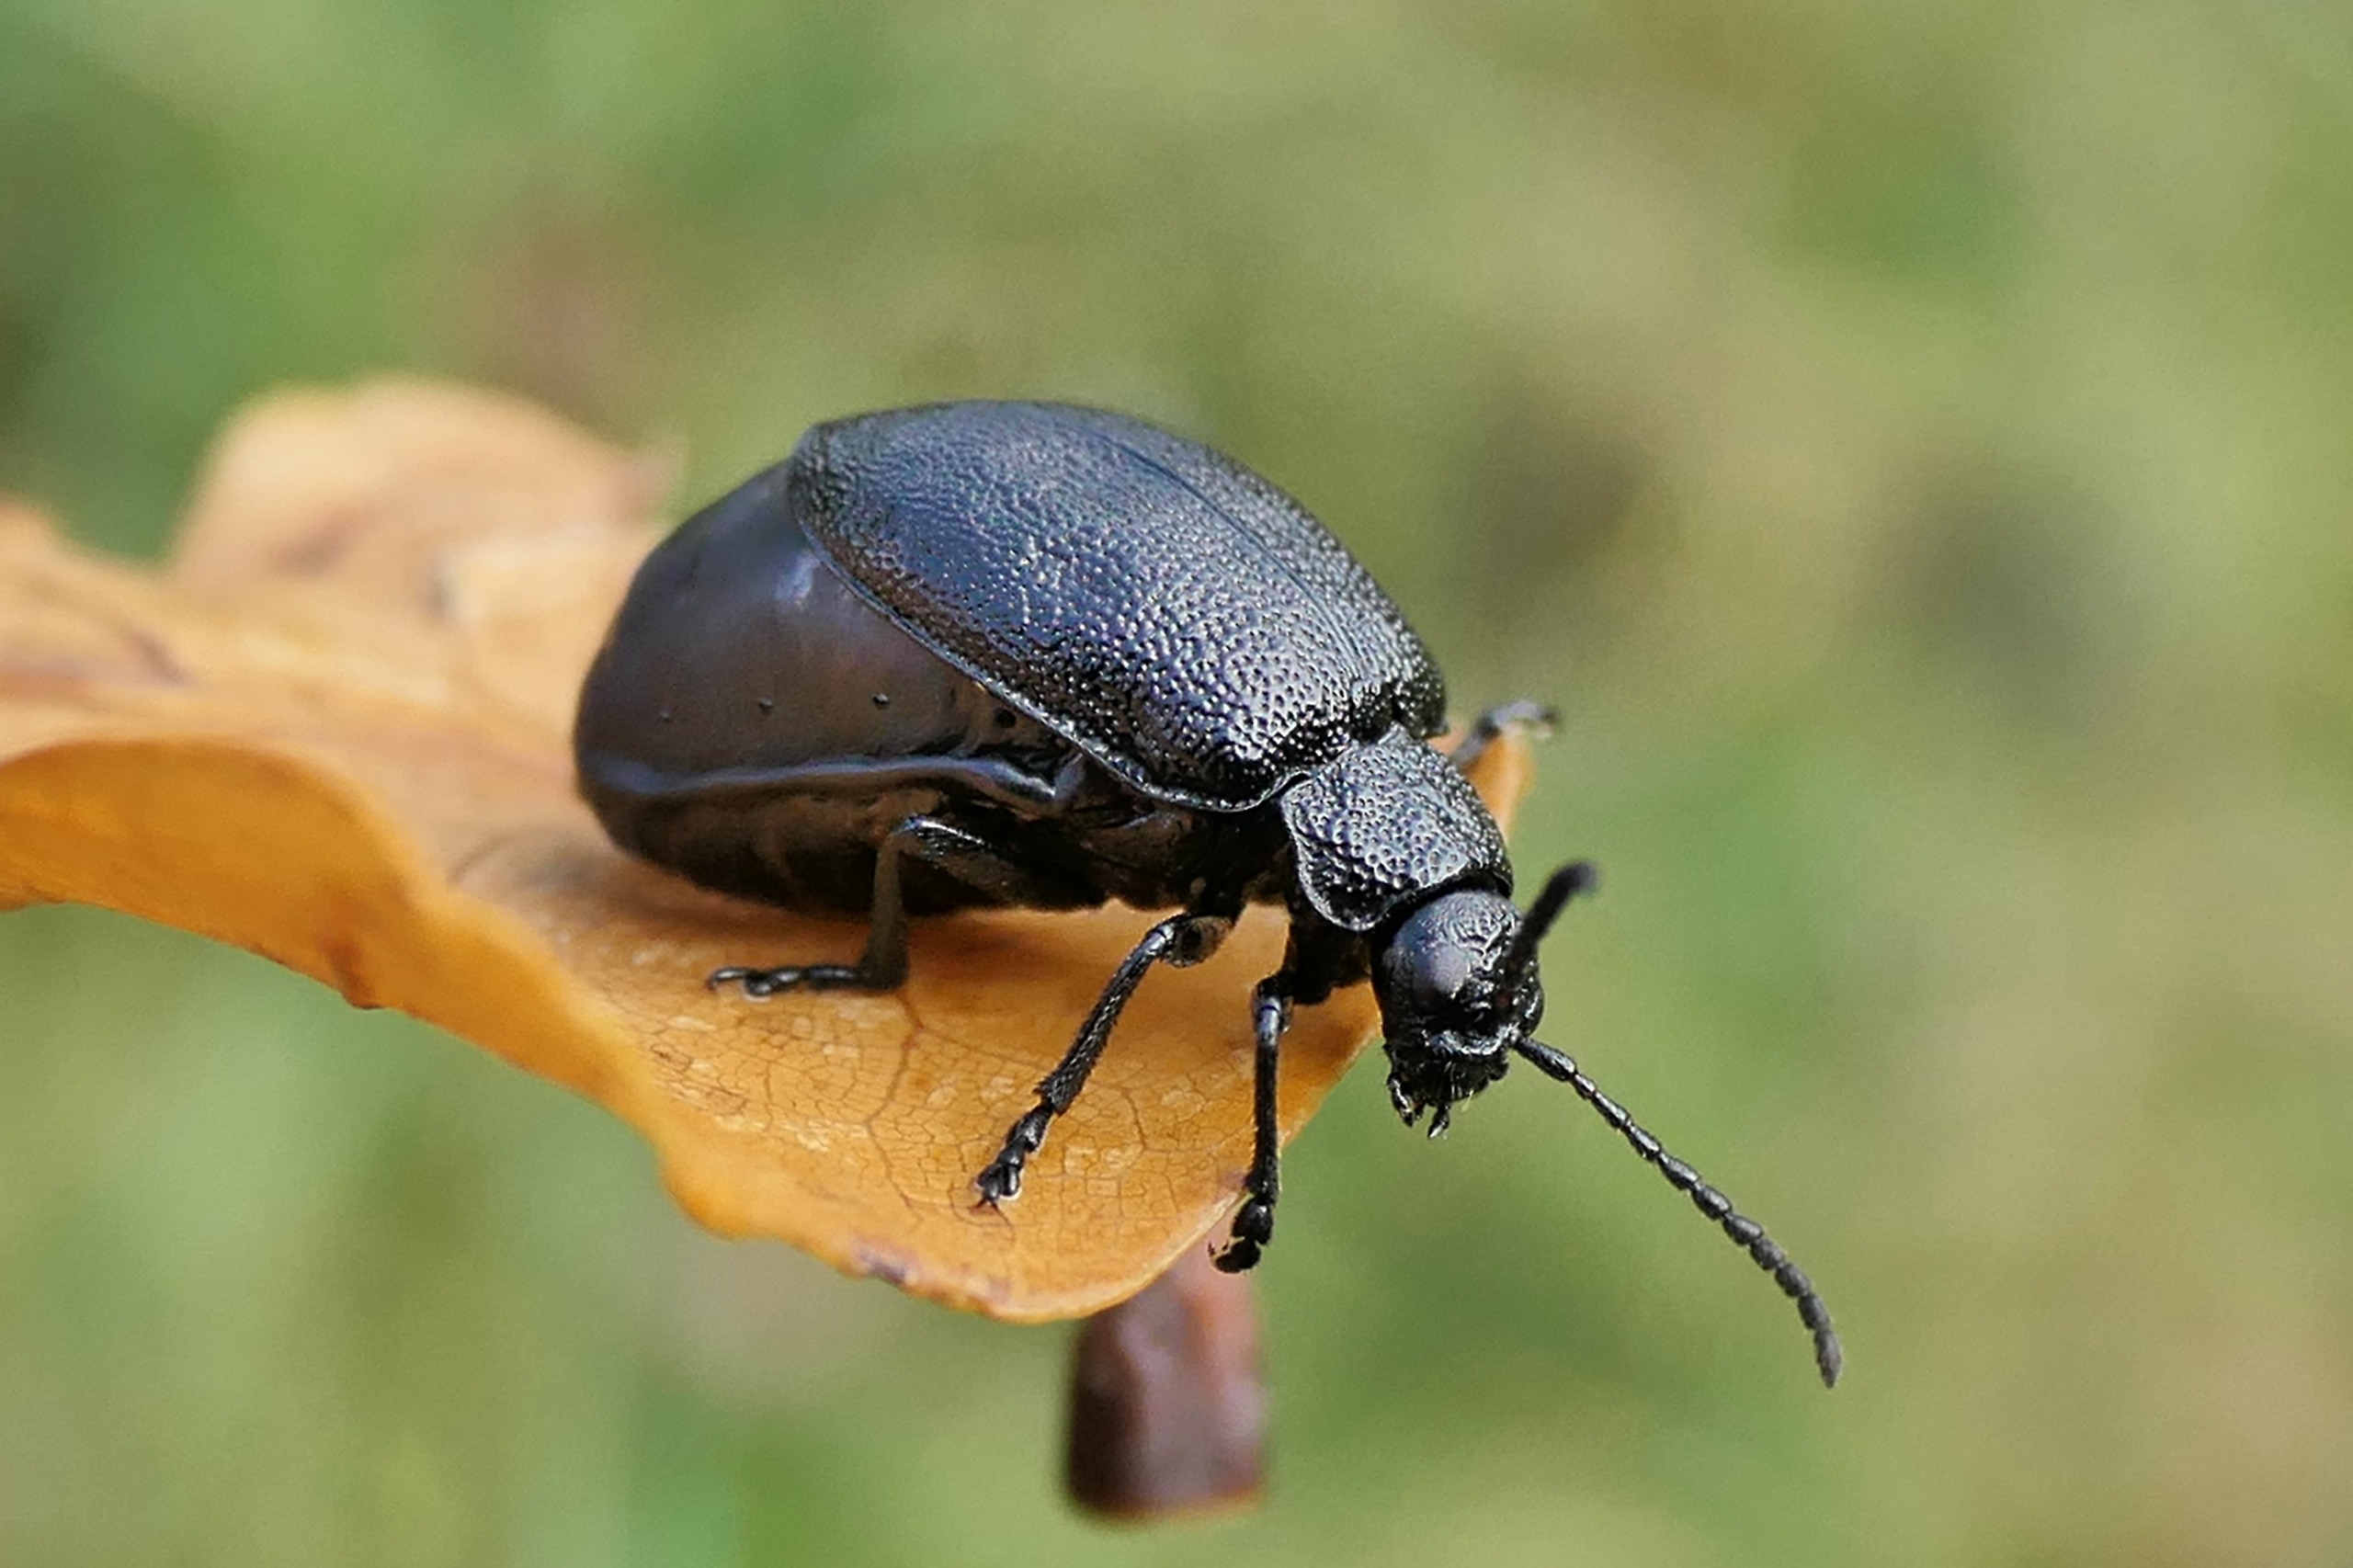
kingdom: Animalia
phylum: Arthropoda
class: Insecta
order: Coleoptera
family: Chrysomelidae
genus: Galeruca
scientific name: Galeruca tanaceti
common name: Rejnfanbladbille
